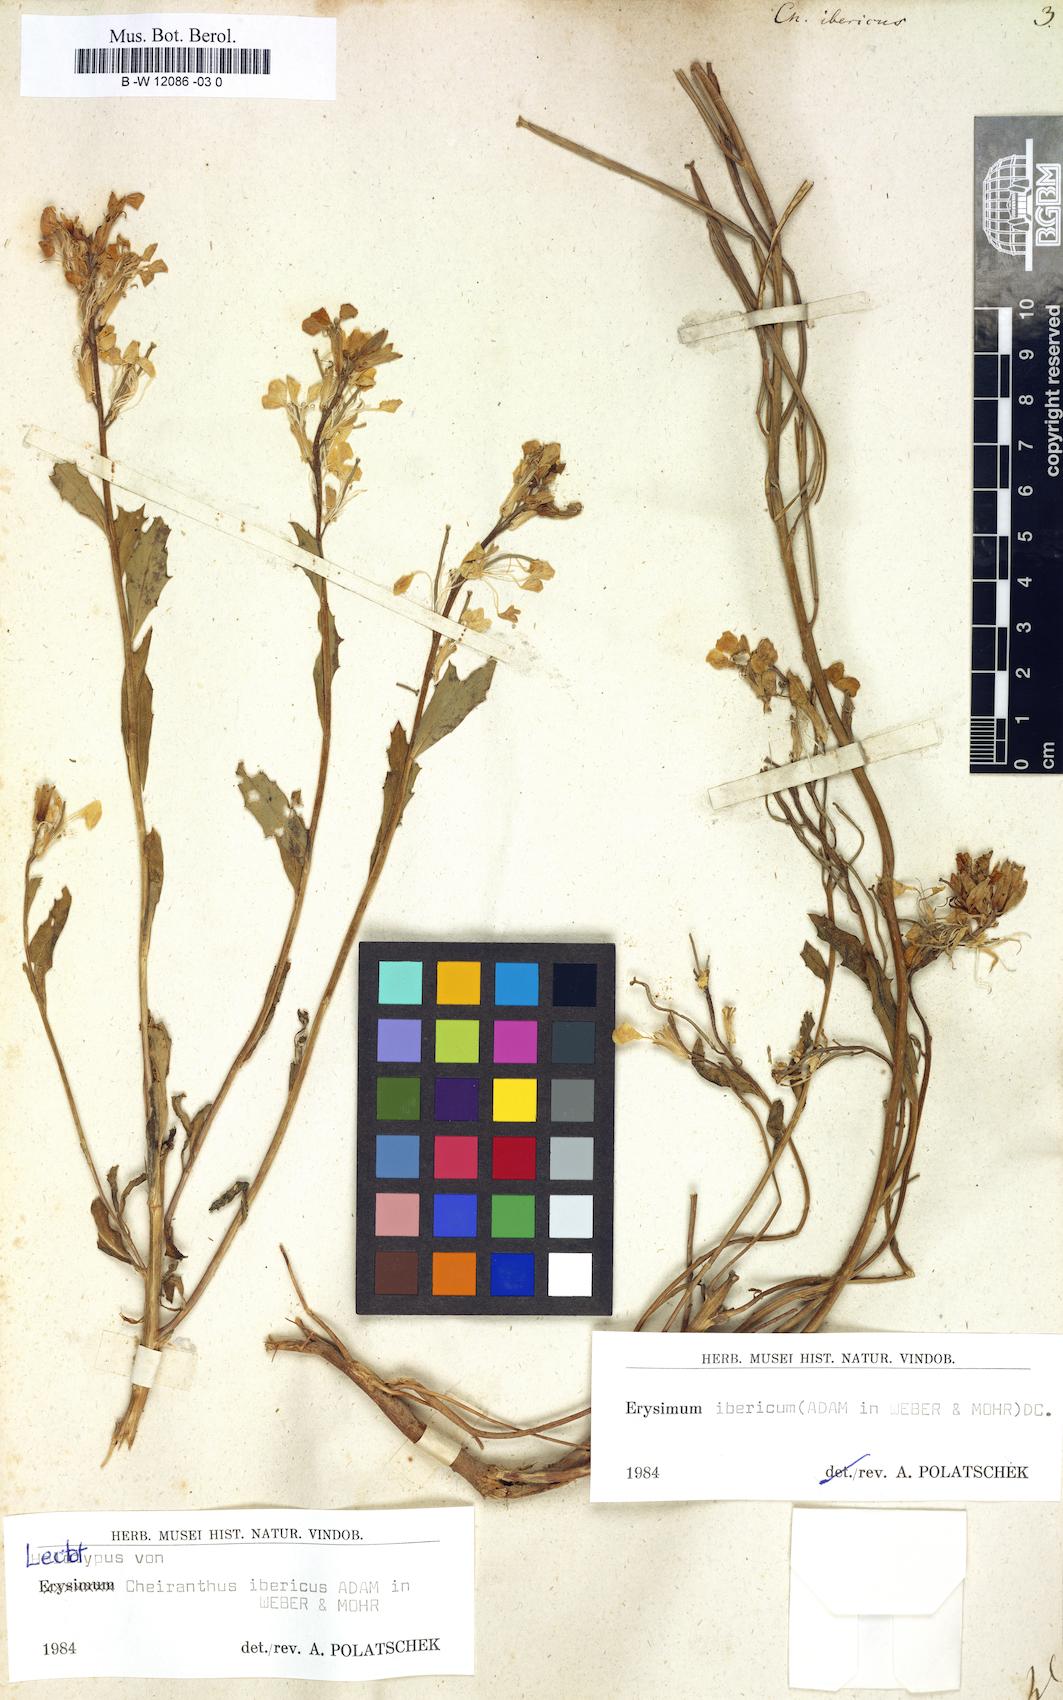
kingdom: Plantae
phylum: Tracheophyta
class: Magnoliopsida
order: Brassicales
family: Brassicaceae
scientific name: Brassicaceae
